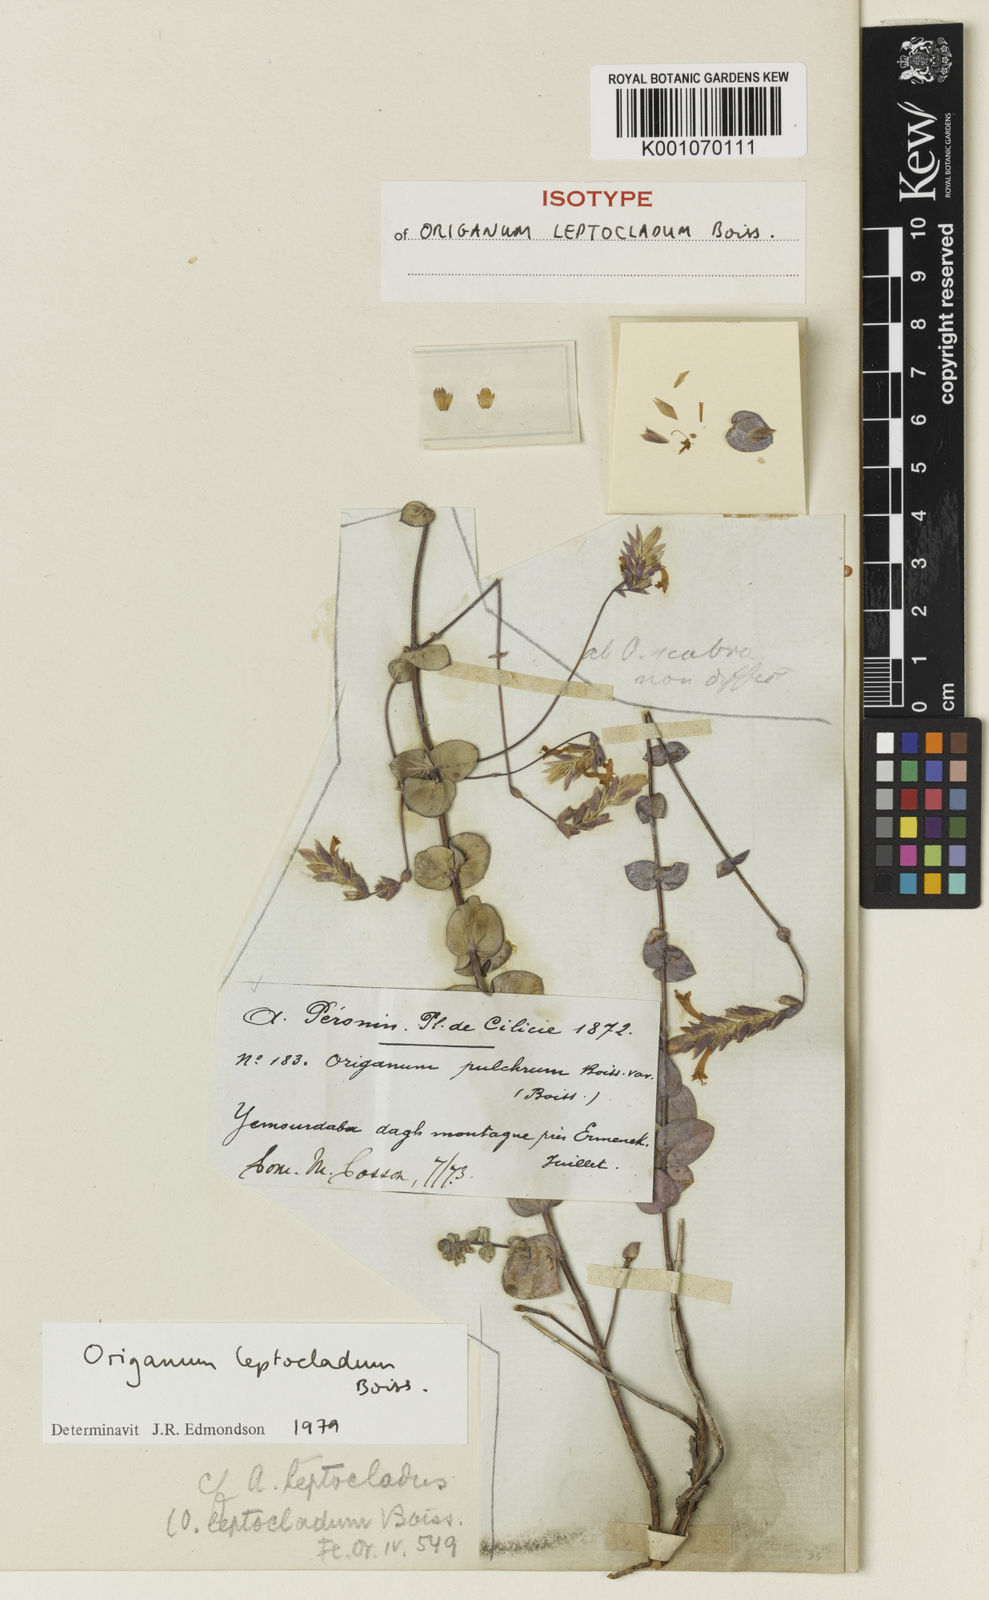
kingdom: Plantae
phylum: Tracheophyta
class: Magnoliopsida
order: Lamiales
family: Lamiaceae
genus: Origanum
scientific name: Origanum leptocladum
